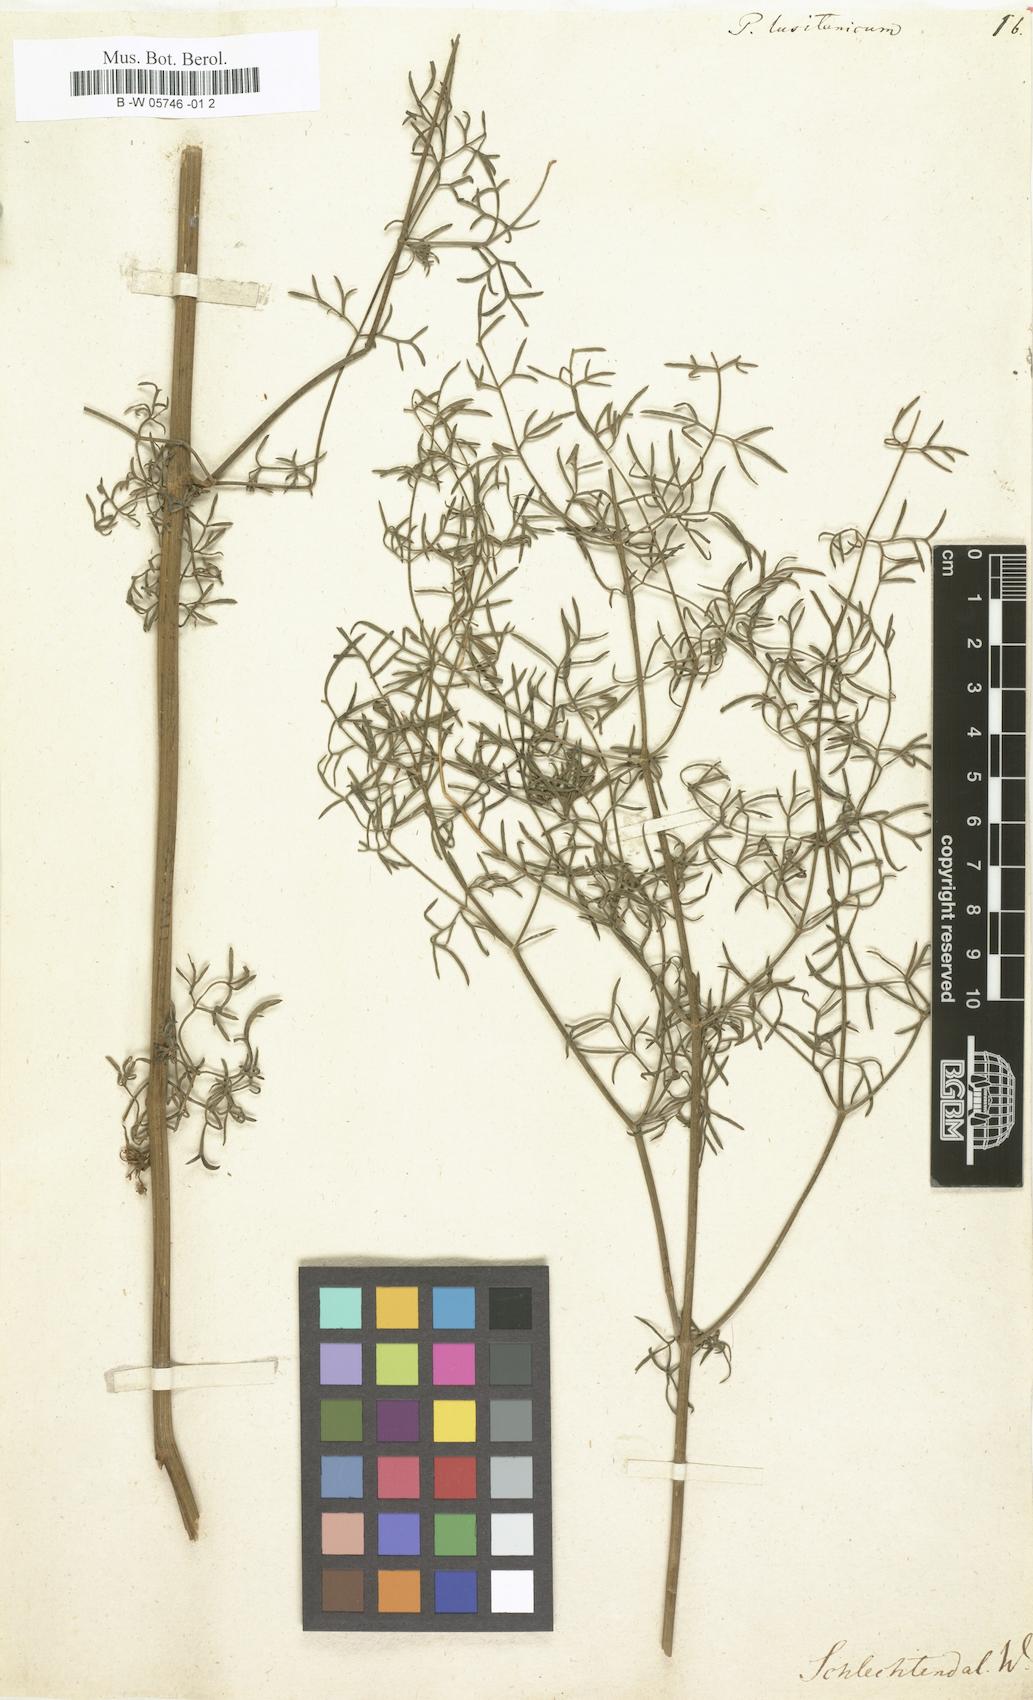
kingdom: Plantae
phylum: Tracheophyta
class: Magnoliopsida
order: Apiales
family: Apiaceae
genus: Ferulago
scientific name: Ferulago capillaris
